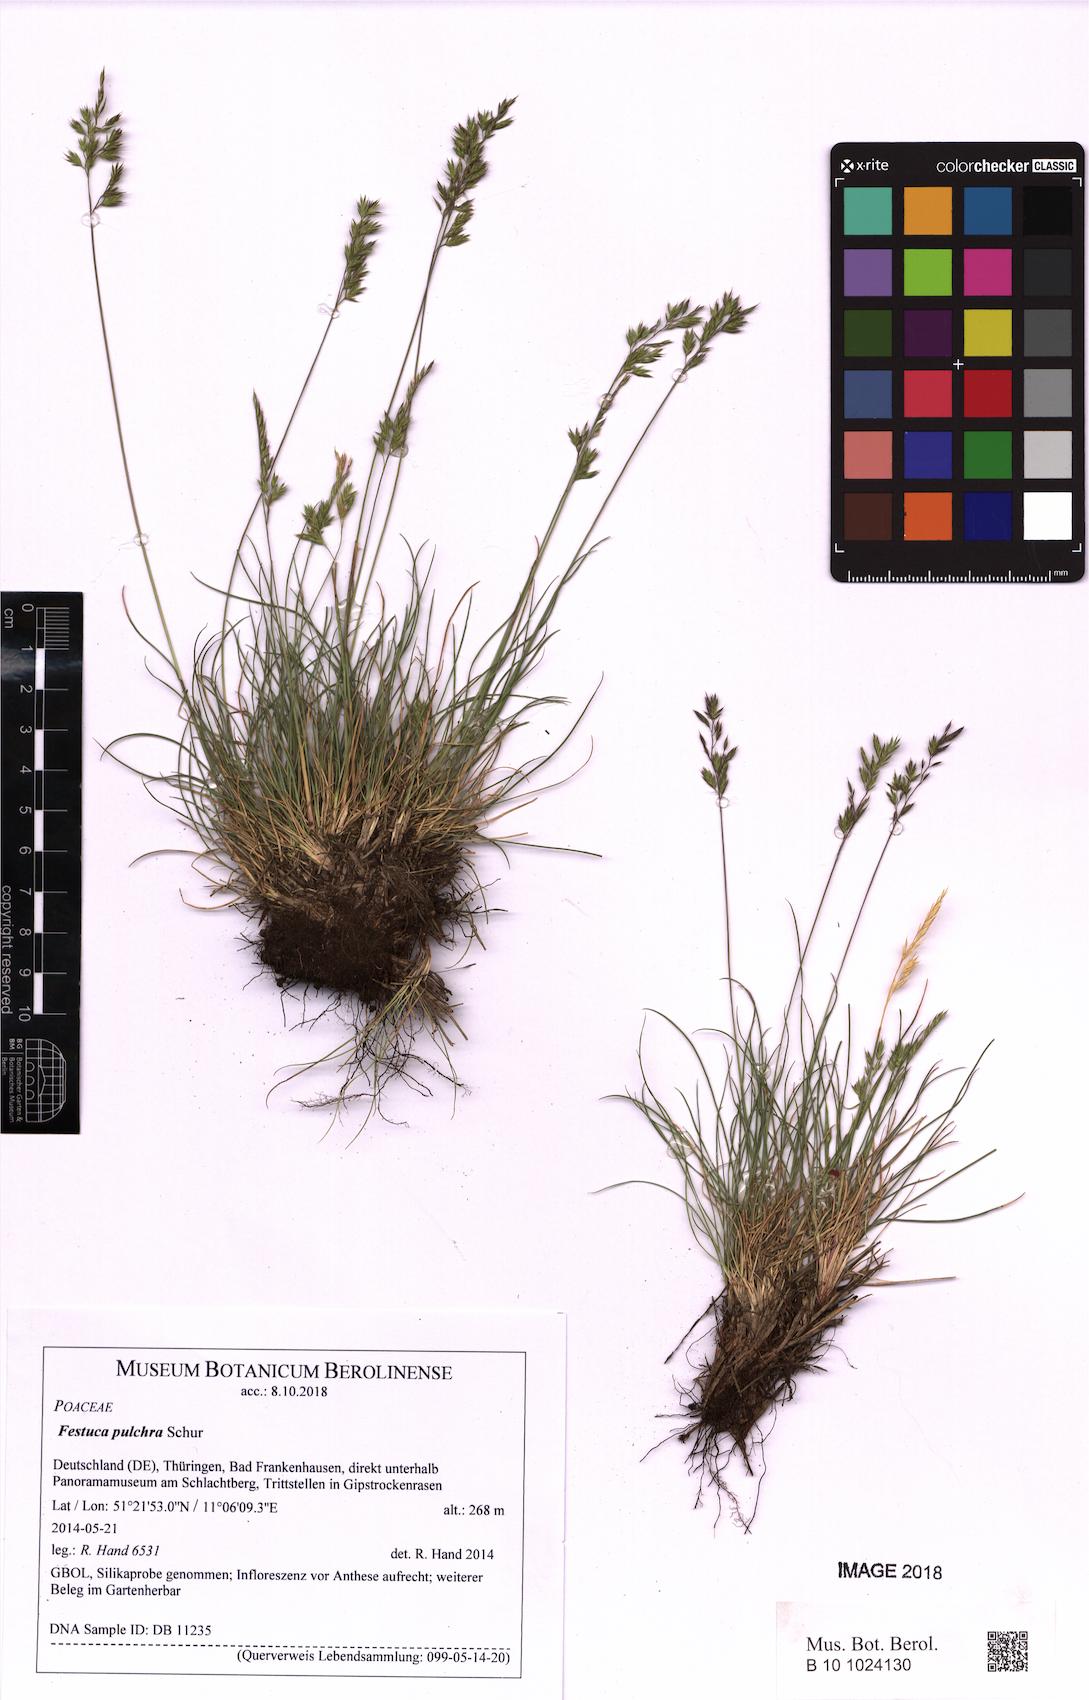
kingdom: Plantae
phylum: Tracheophyta
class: Liliopsida
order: Poales
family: Poaceae
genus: Festuca
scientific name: Festuca pulchra
